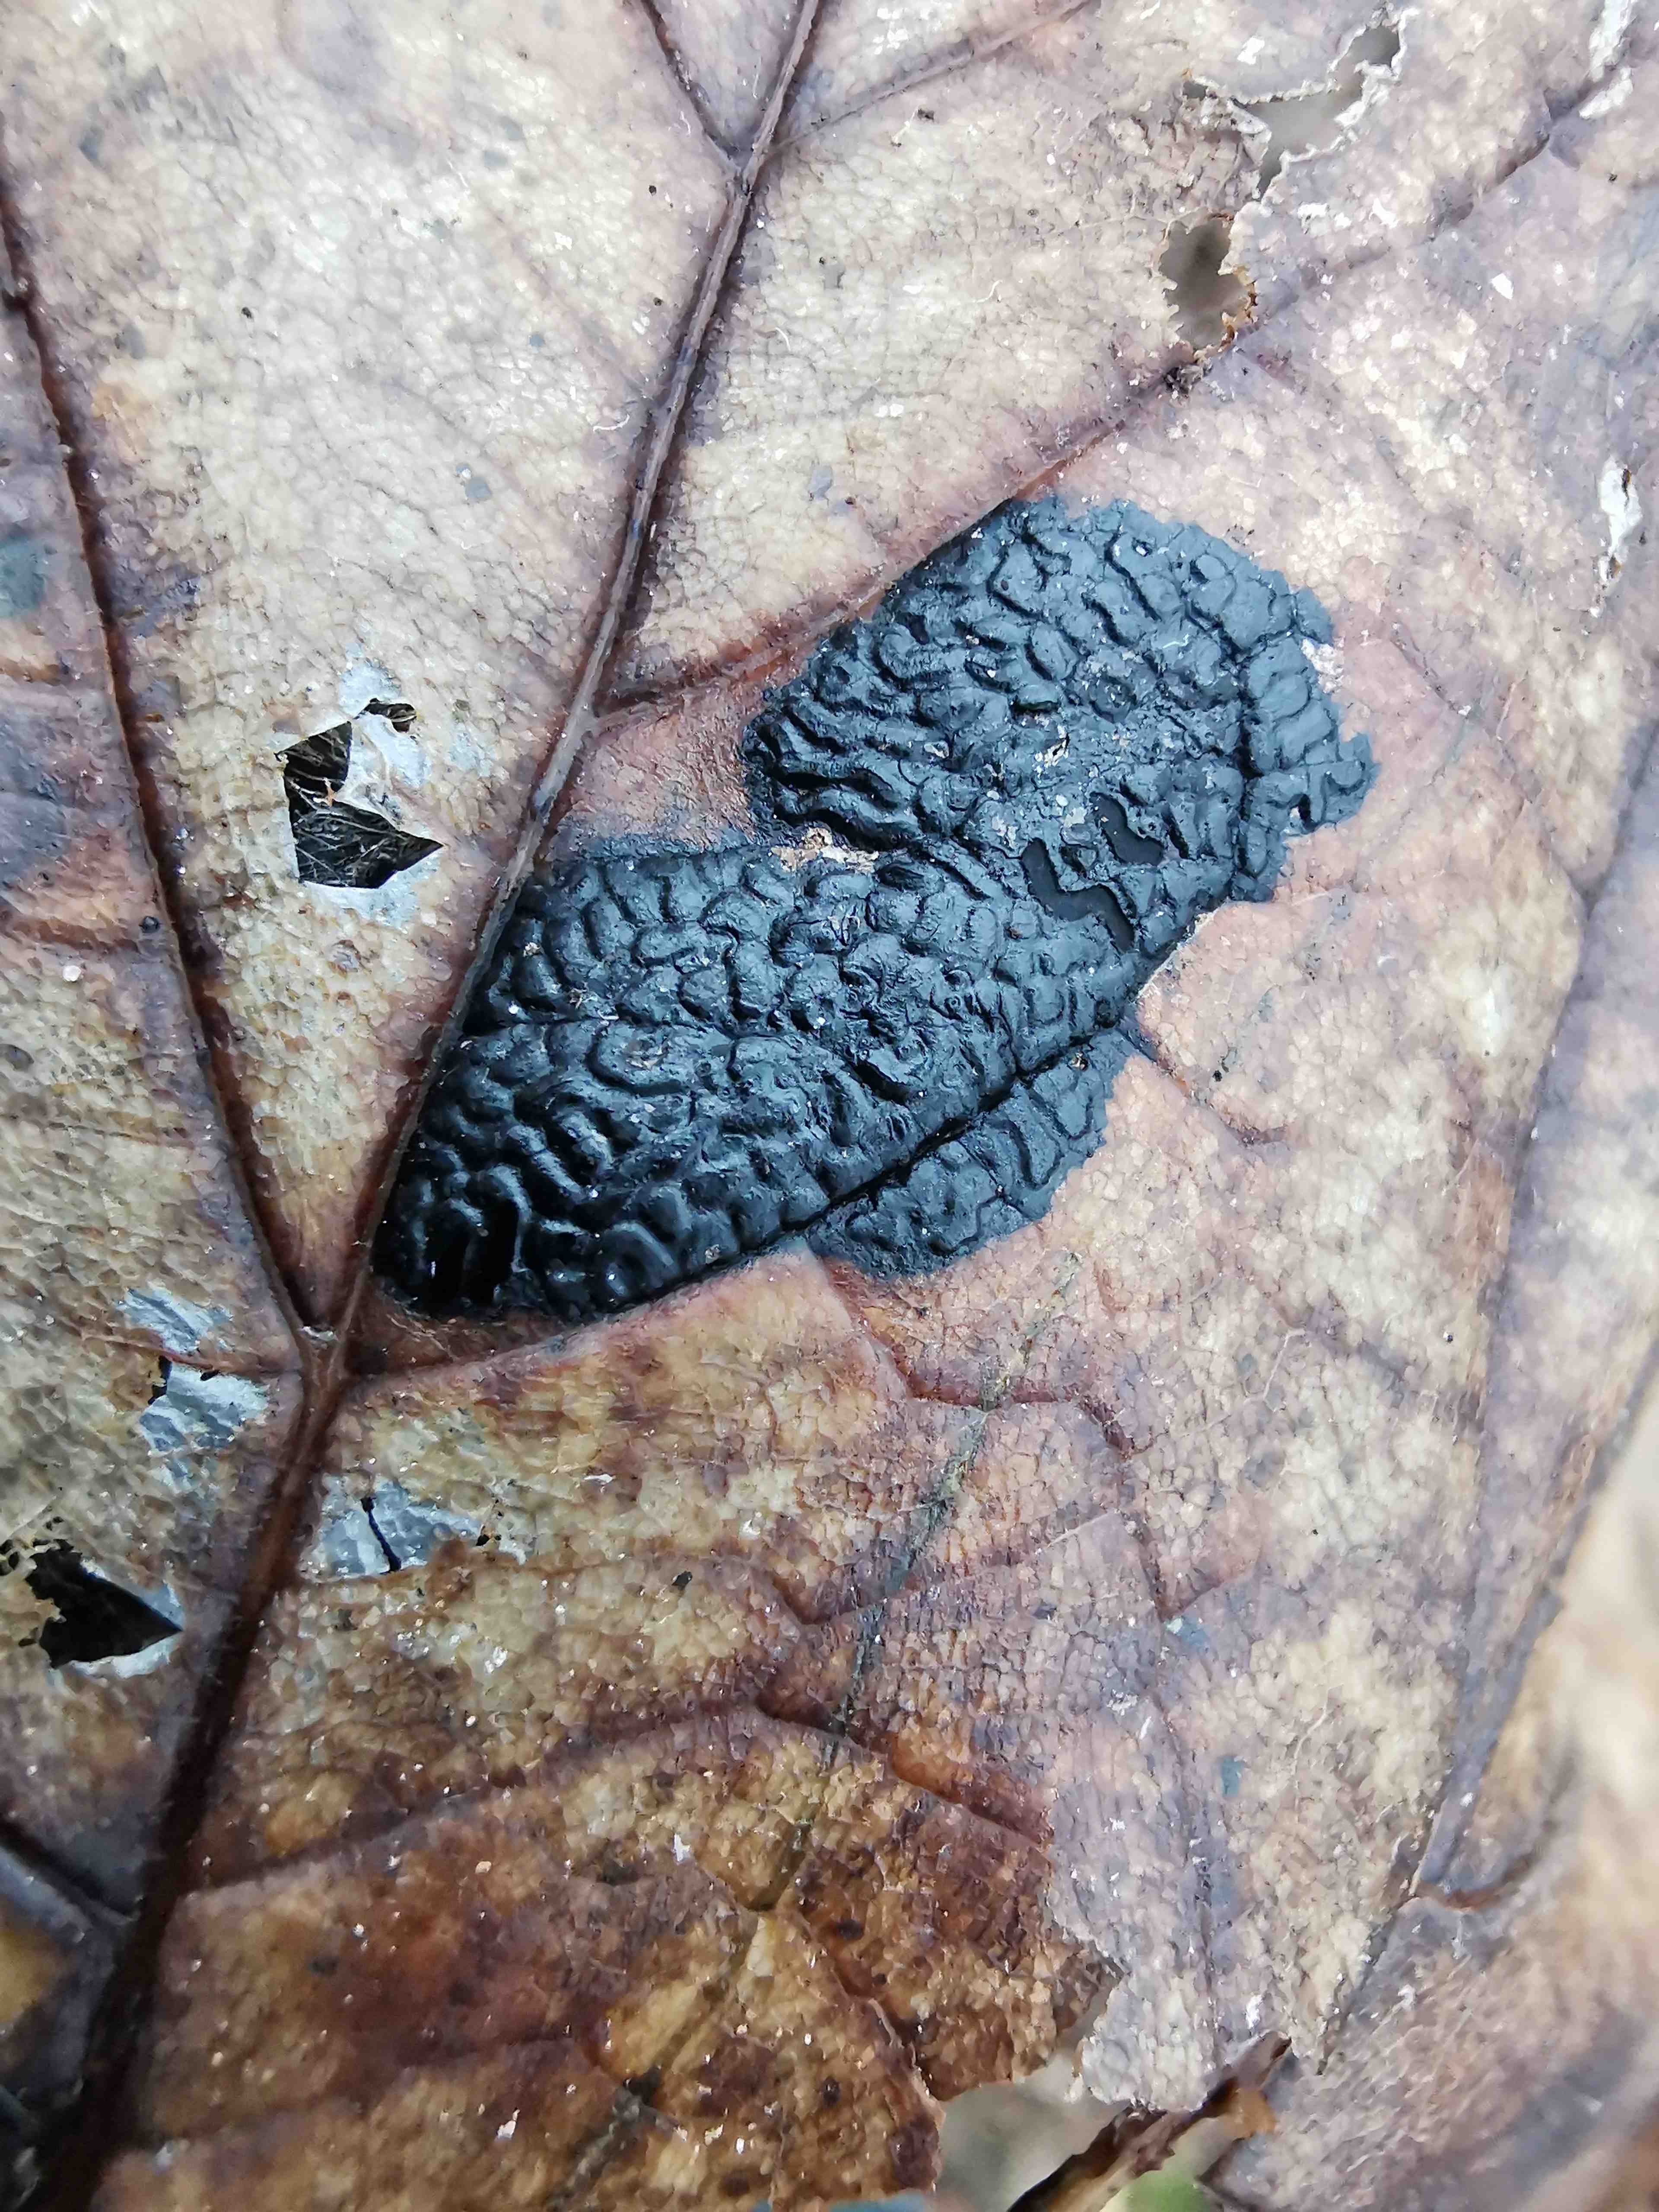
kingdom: Fungi
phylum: Ascomycota
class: Leotiomycetes
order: Rhytismatales
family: Rhytismataceae
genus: Rhytisma
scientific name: Rhytisma acerinum
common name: ahorn-rynkeplet
